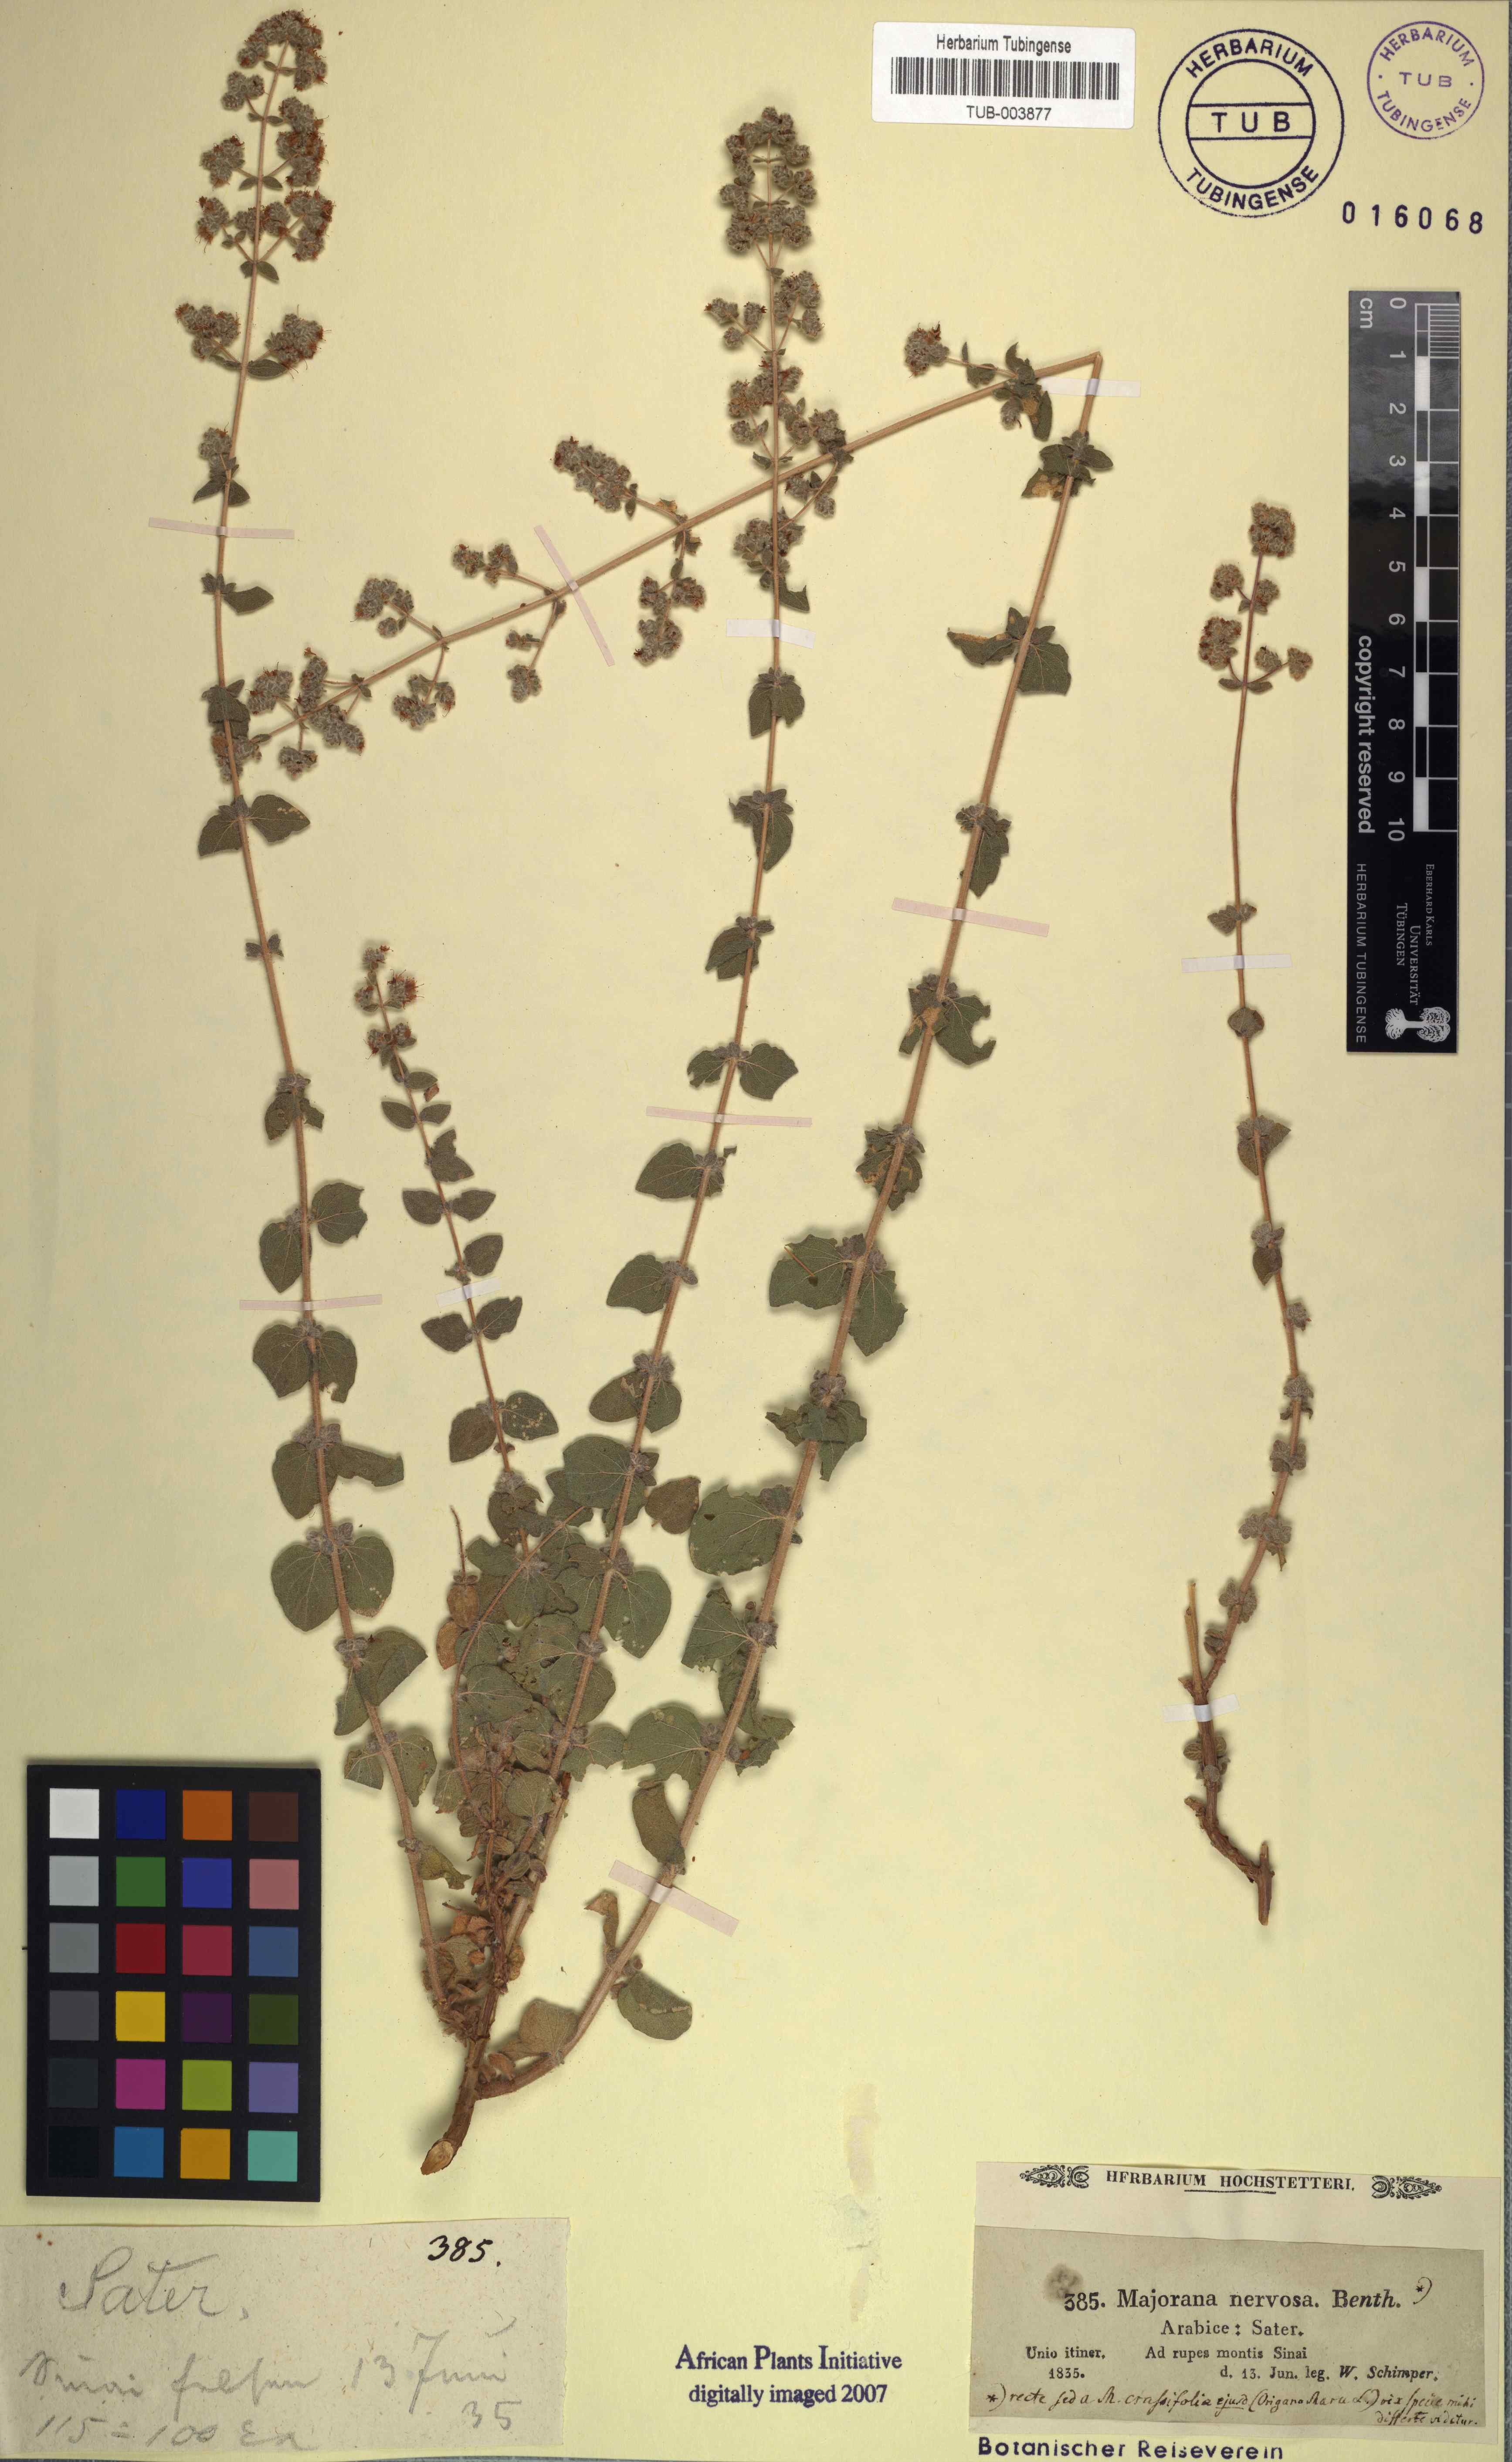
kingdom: Plantae
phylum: Tracheophyta
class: Magnoliopsida
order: Lamiales
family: Lamiaceae
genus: Origanum
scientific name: Origanum syriacum
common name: Biblical-hyssop
